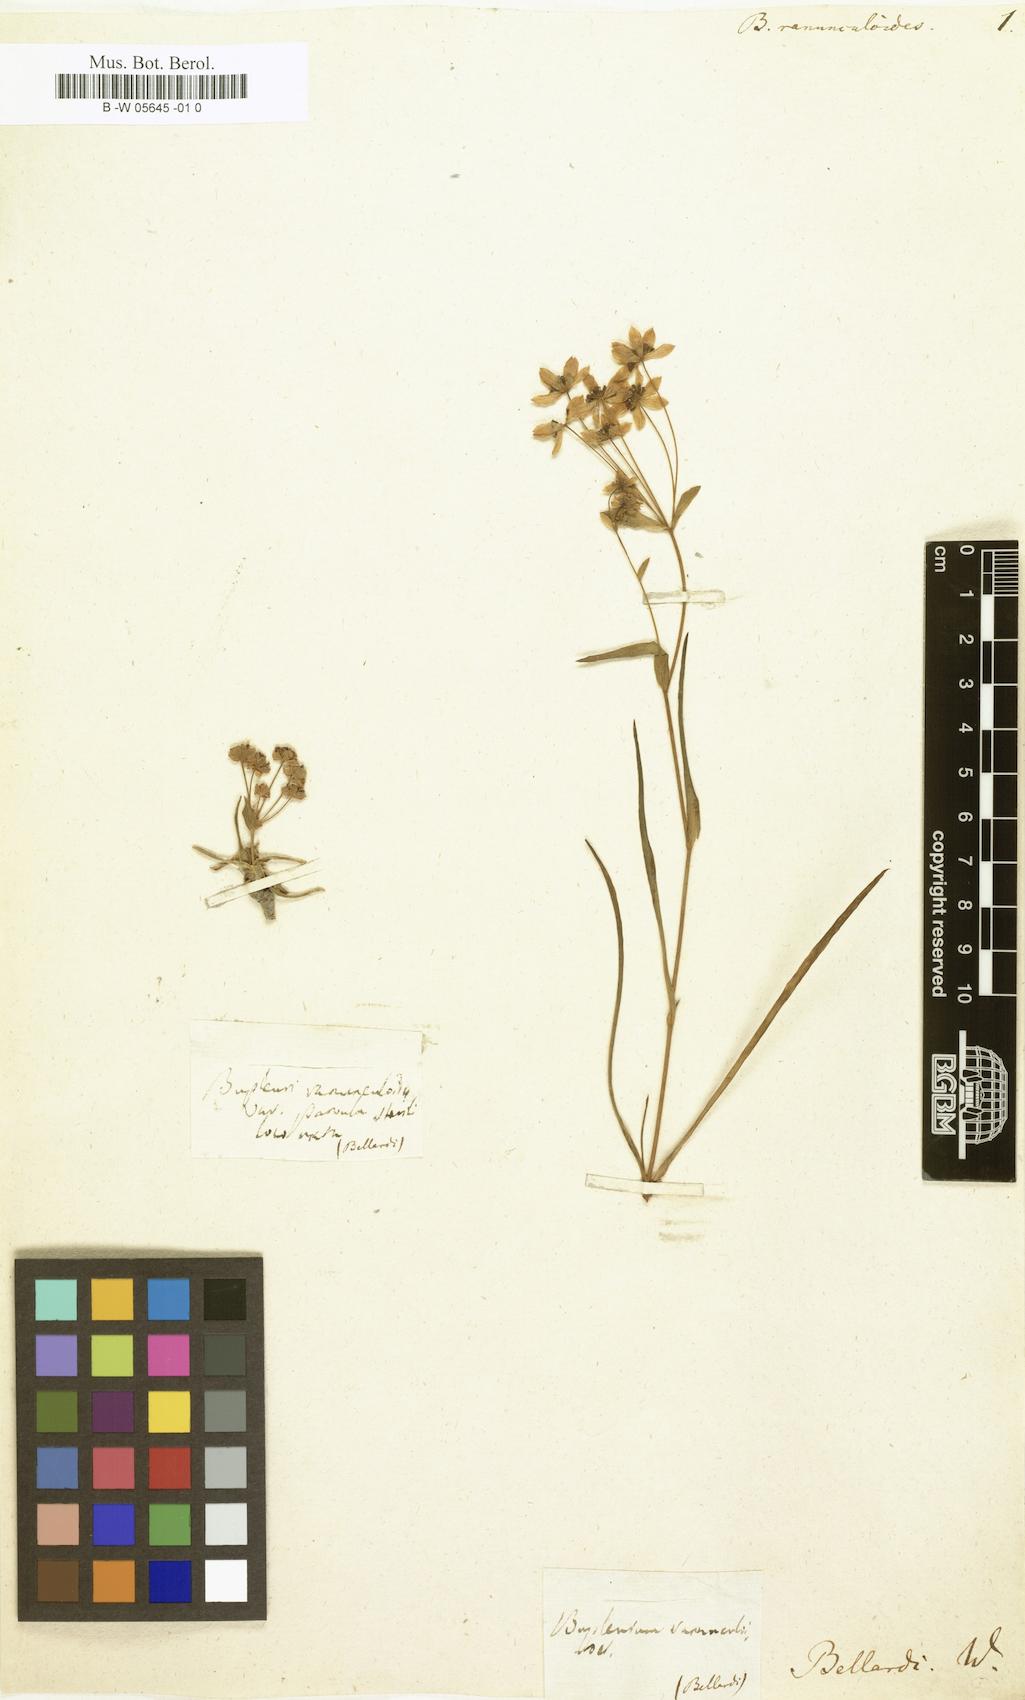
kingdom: Plantae
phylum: Tracheophyta
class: Magnoliopsida
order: Apiales
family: Apiaceae
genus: Bupleurum
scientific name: Bupleurum ranunculoides
